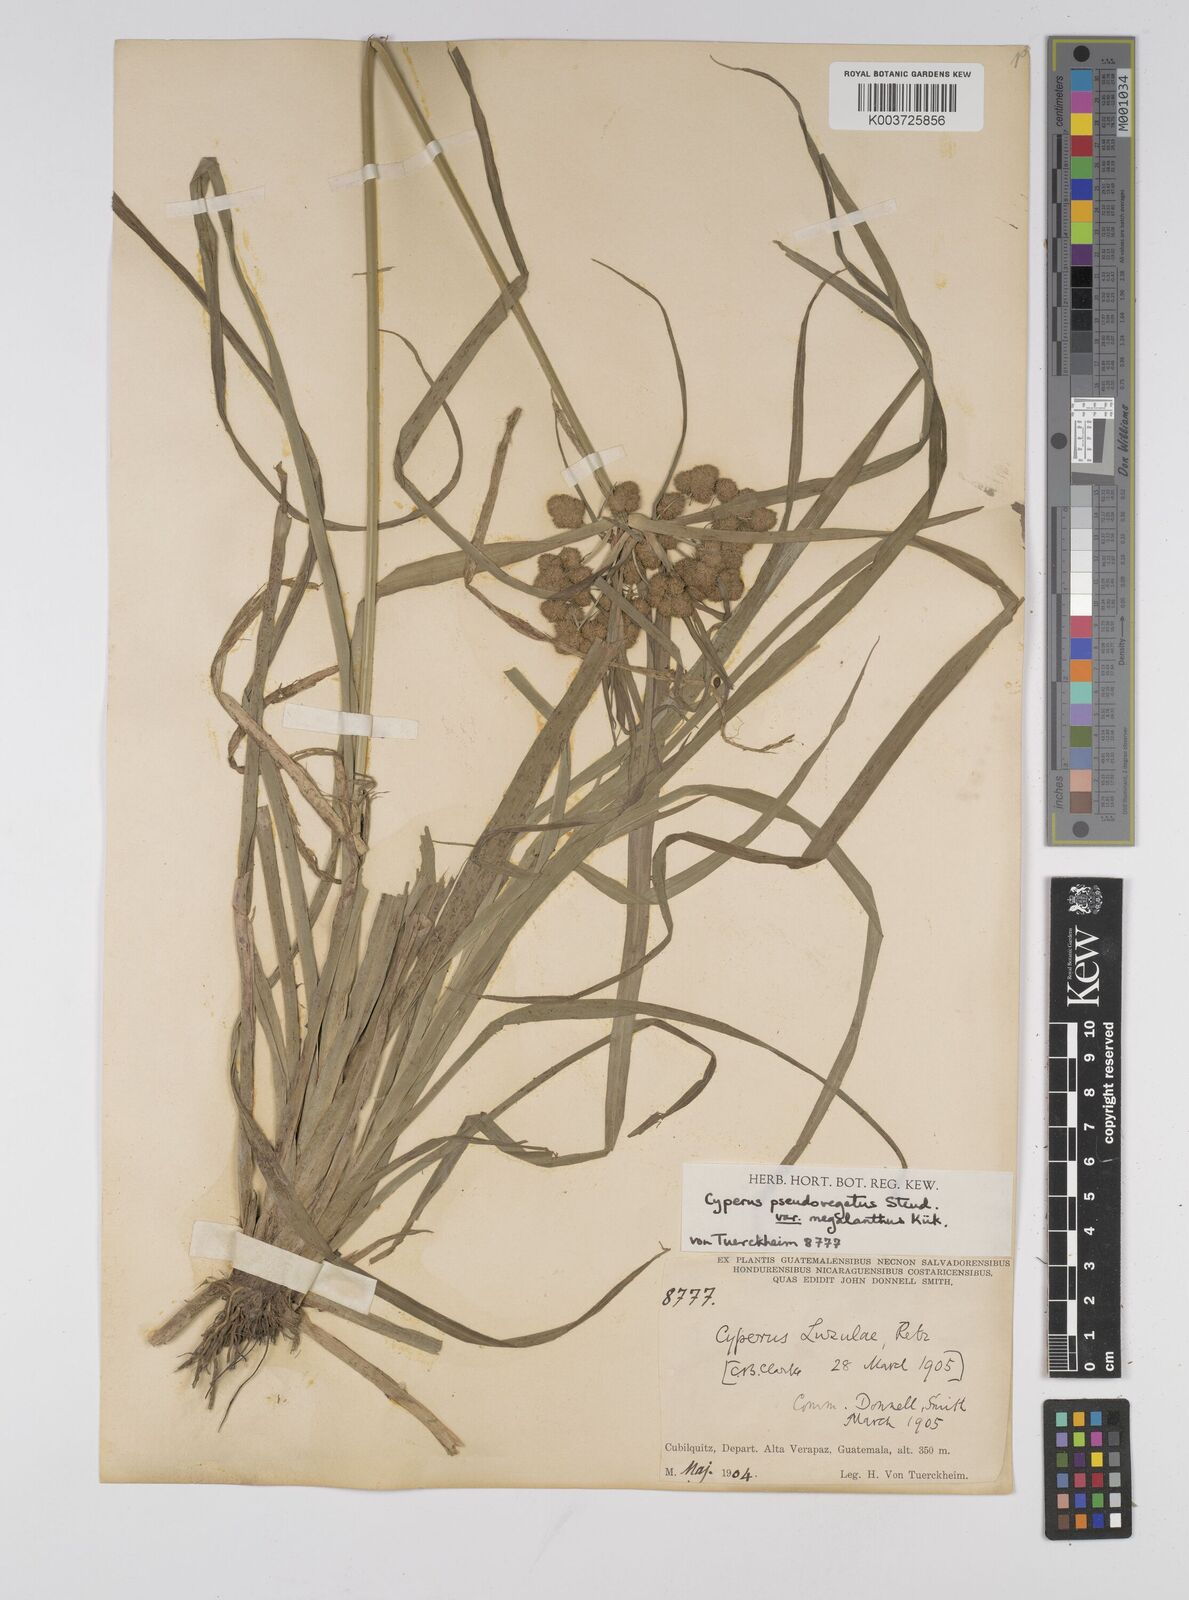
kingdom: Plantae
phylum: Tracheophyta
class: Liliopsida
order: Poales
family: Cyperaceae
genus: Cyperus
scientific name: Cyperus megalanthus
